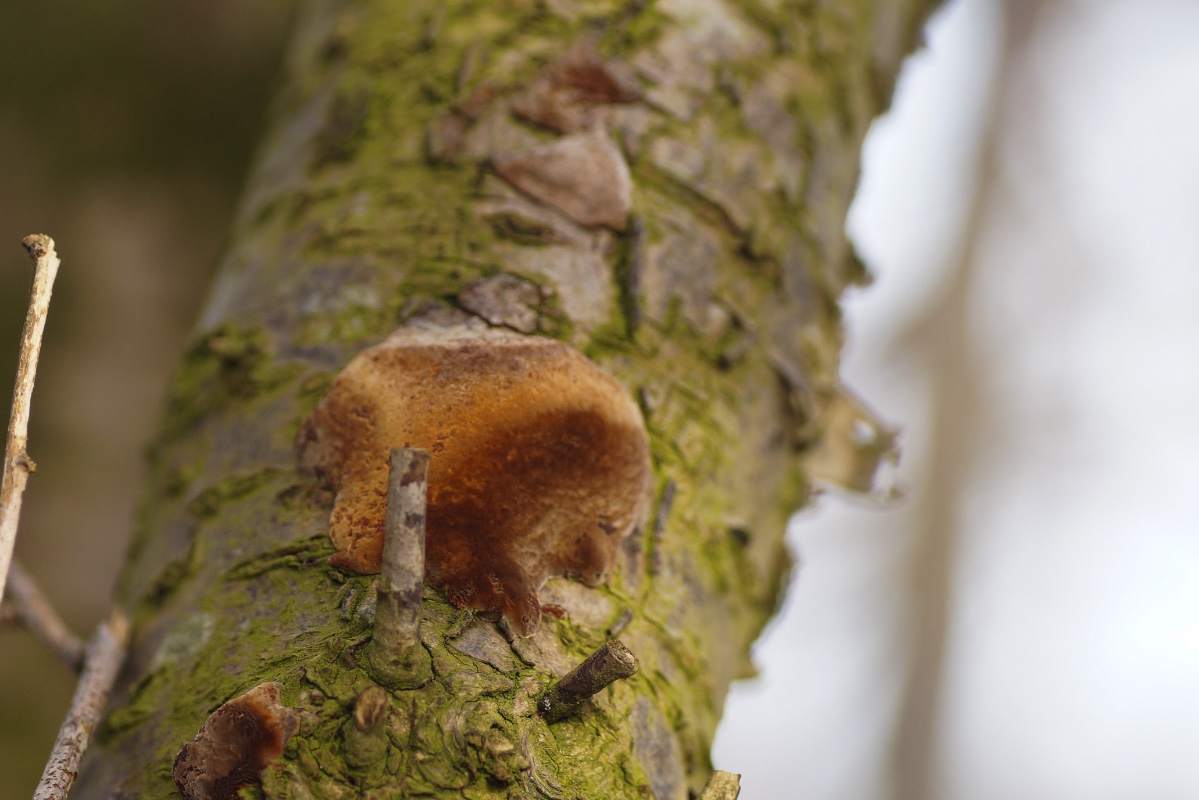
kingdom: Fungi
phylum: Basidiomycota
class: Agaricomycetes
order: Hymenochaetales
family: Hymenochaetaceae
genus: Phellinus
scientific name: Phellinus pomaceus
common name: blomme-ildporesvamp
